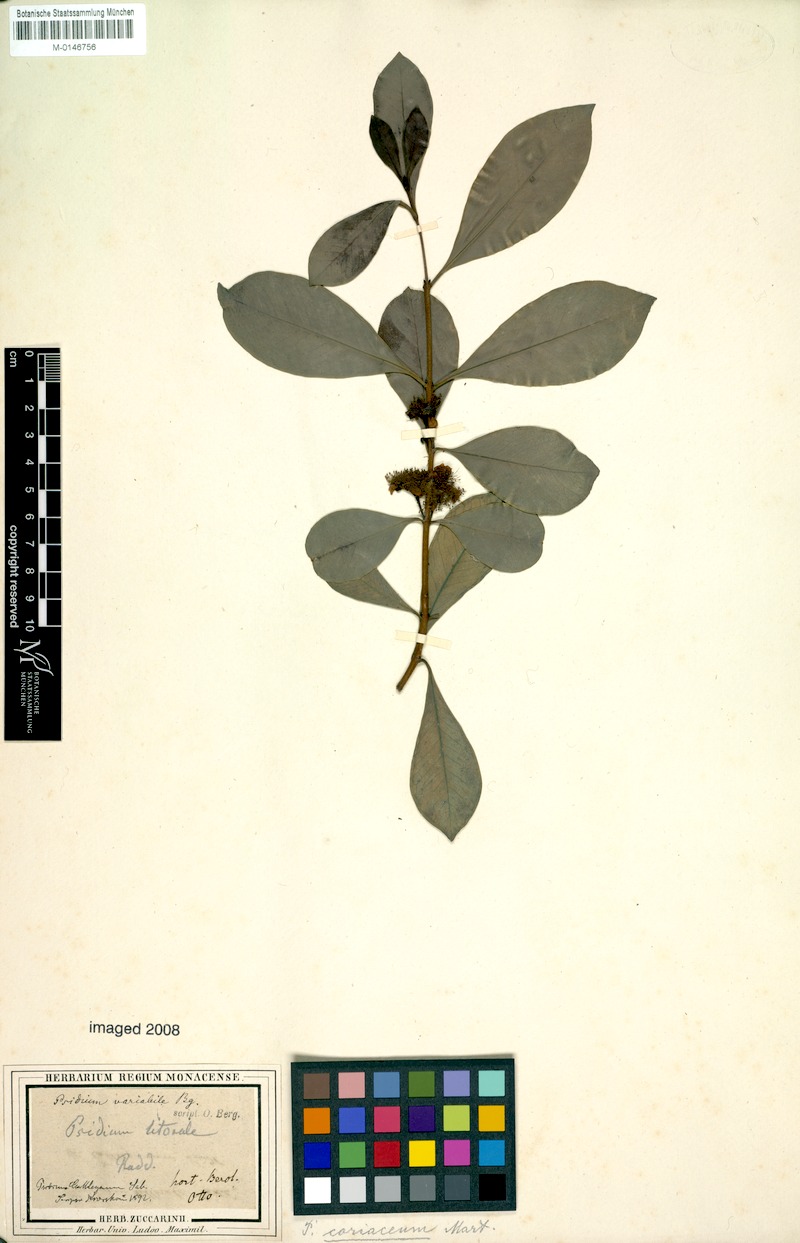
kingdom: Plantae
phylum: Tracheophyta
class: Magnoliopsida
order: Myrtales
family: Myrtaceae
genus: Psidium
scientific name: Psidium cattleianum
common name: Strawberry guava
